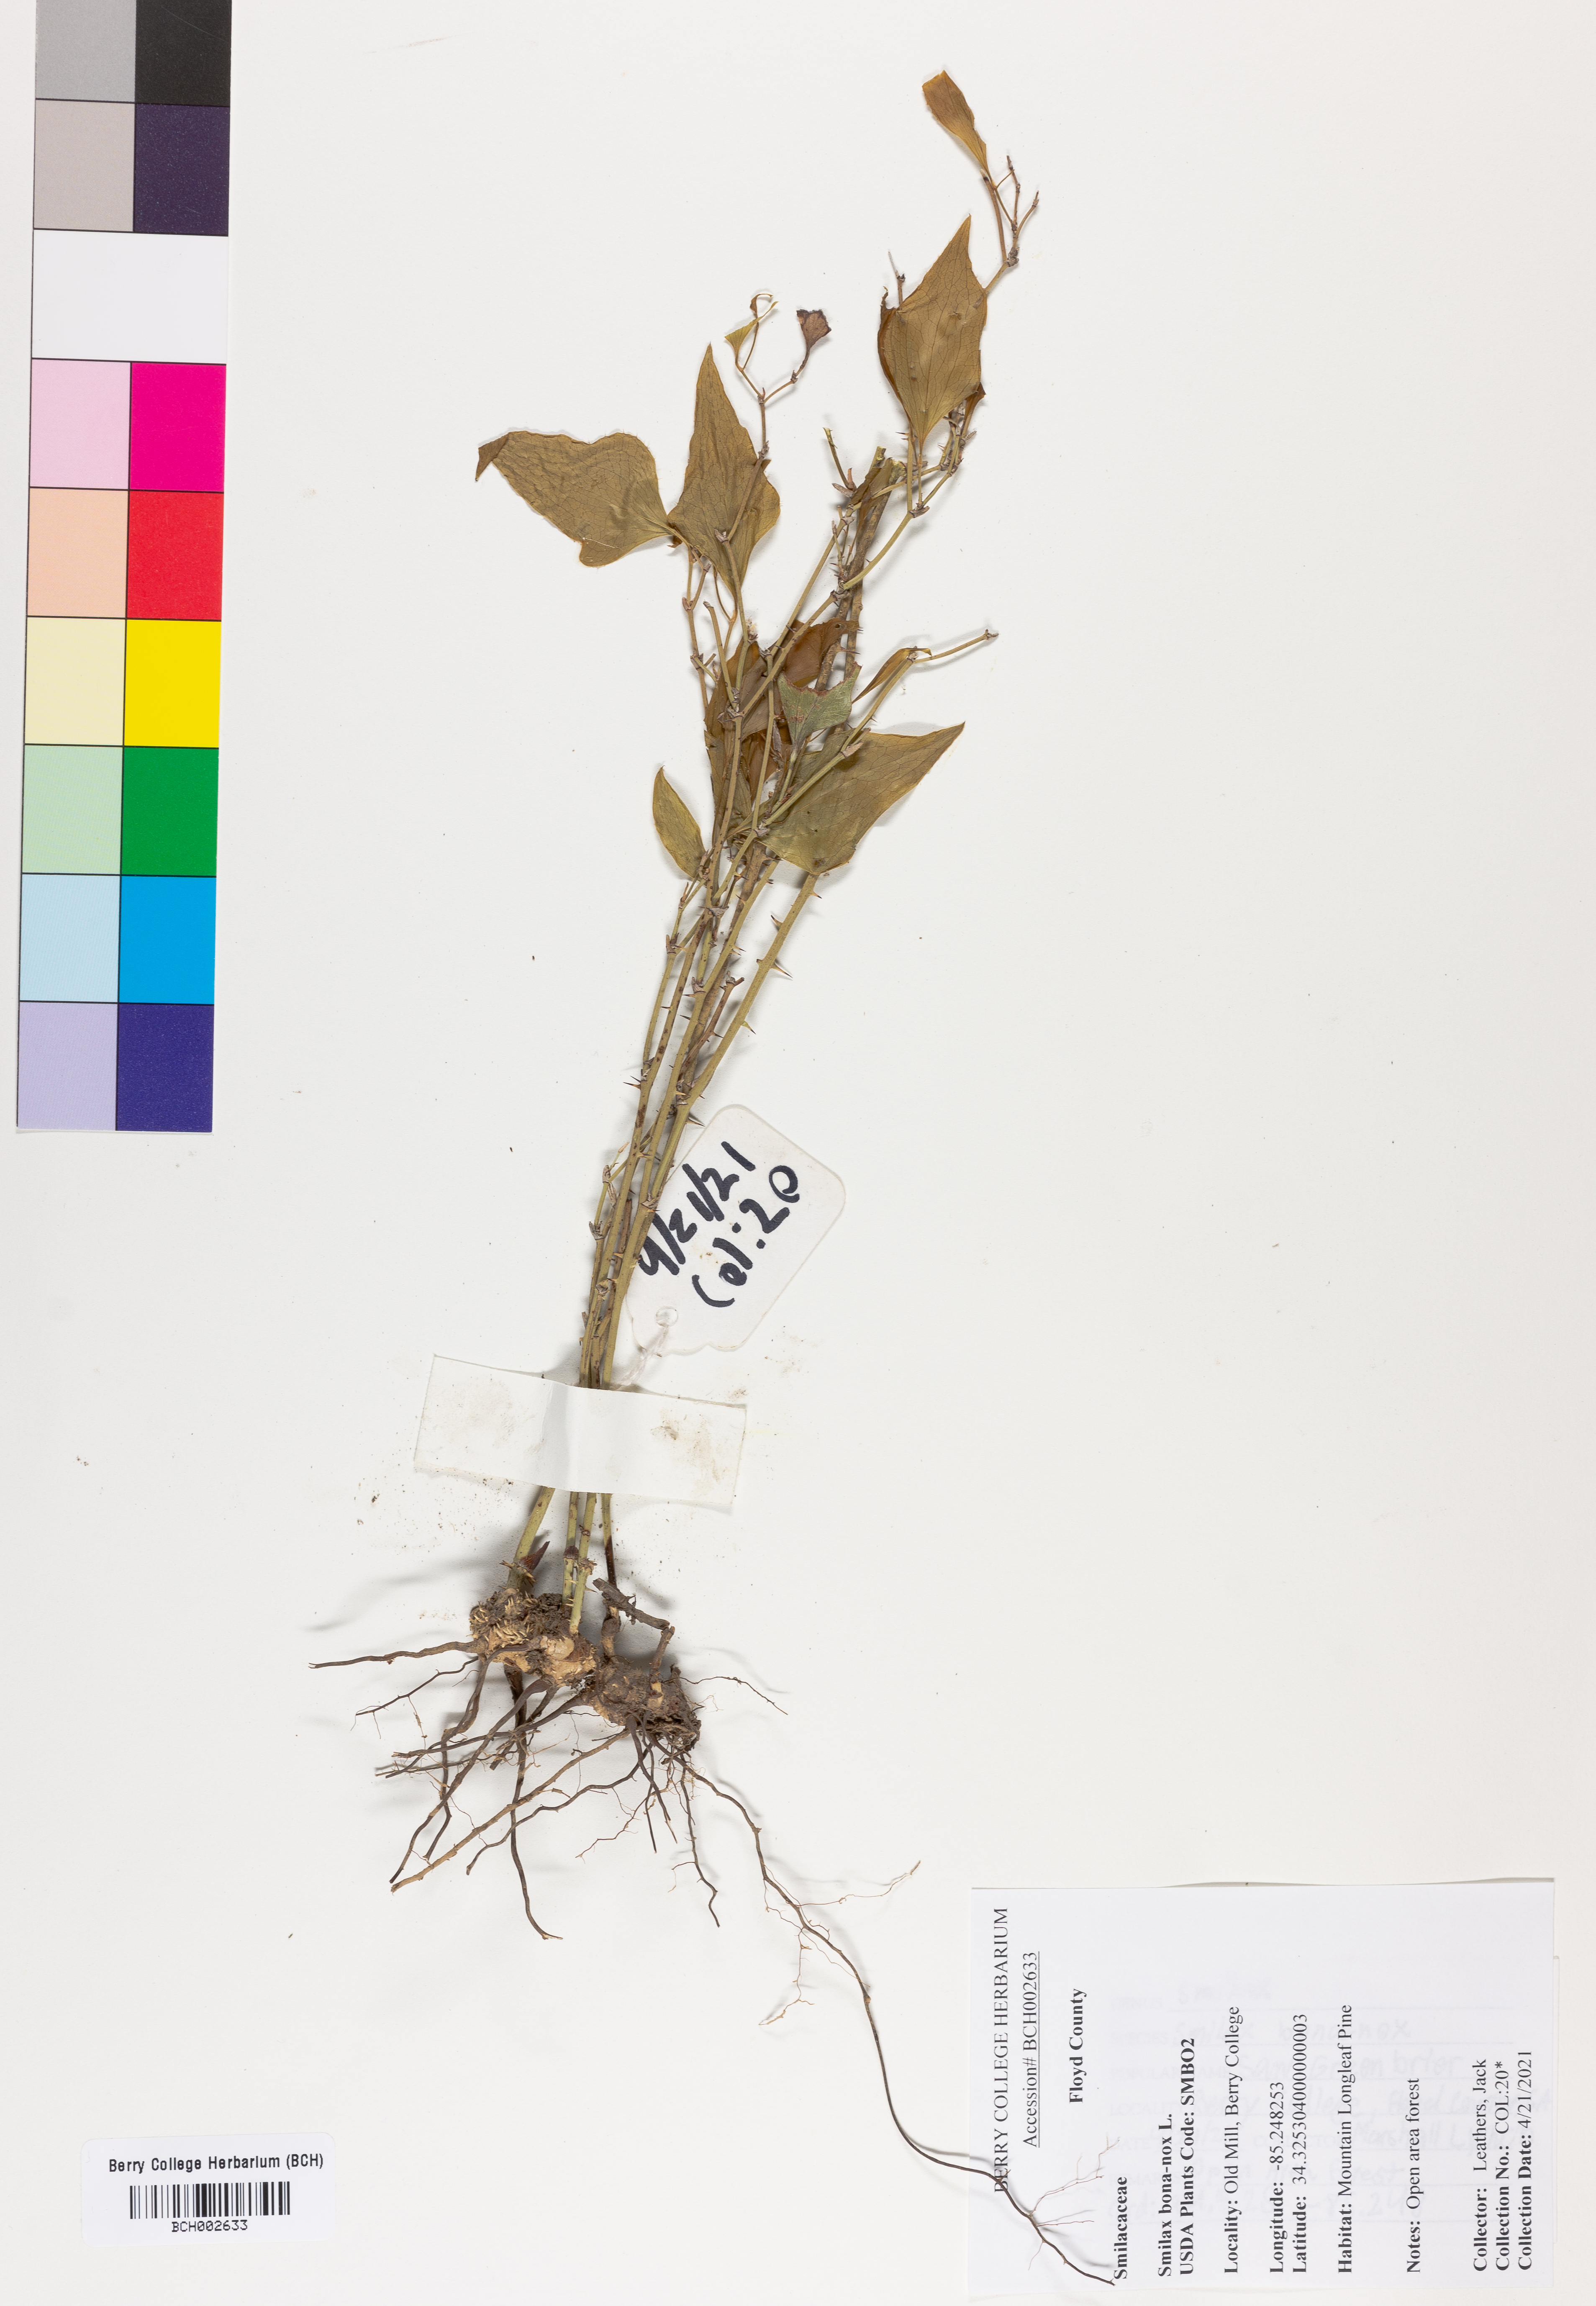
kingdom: Plantae
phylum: Tracheophyta
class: Liliopsida
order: Liliales
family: Smilacaceae
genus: Smilax
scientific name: Smilax bona-nox
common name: Catbrier
